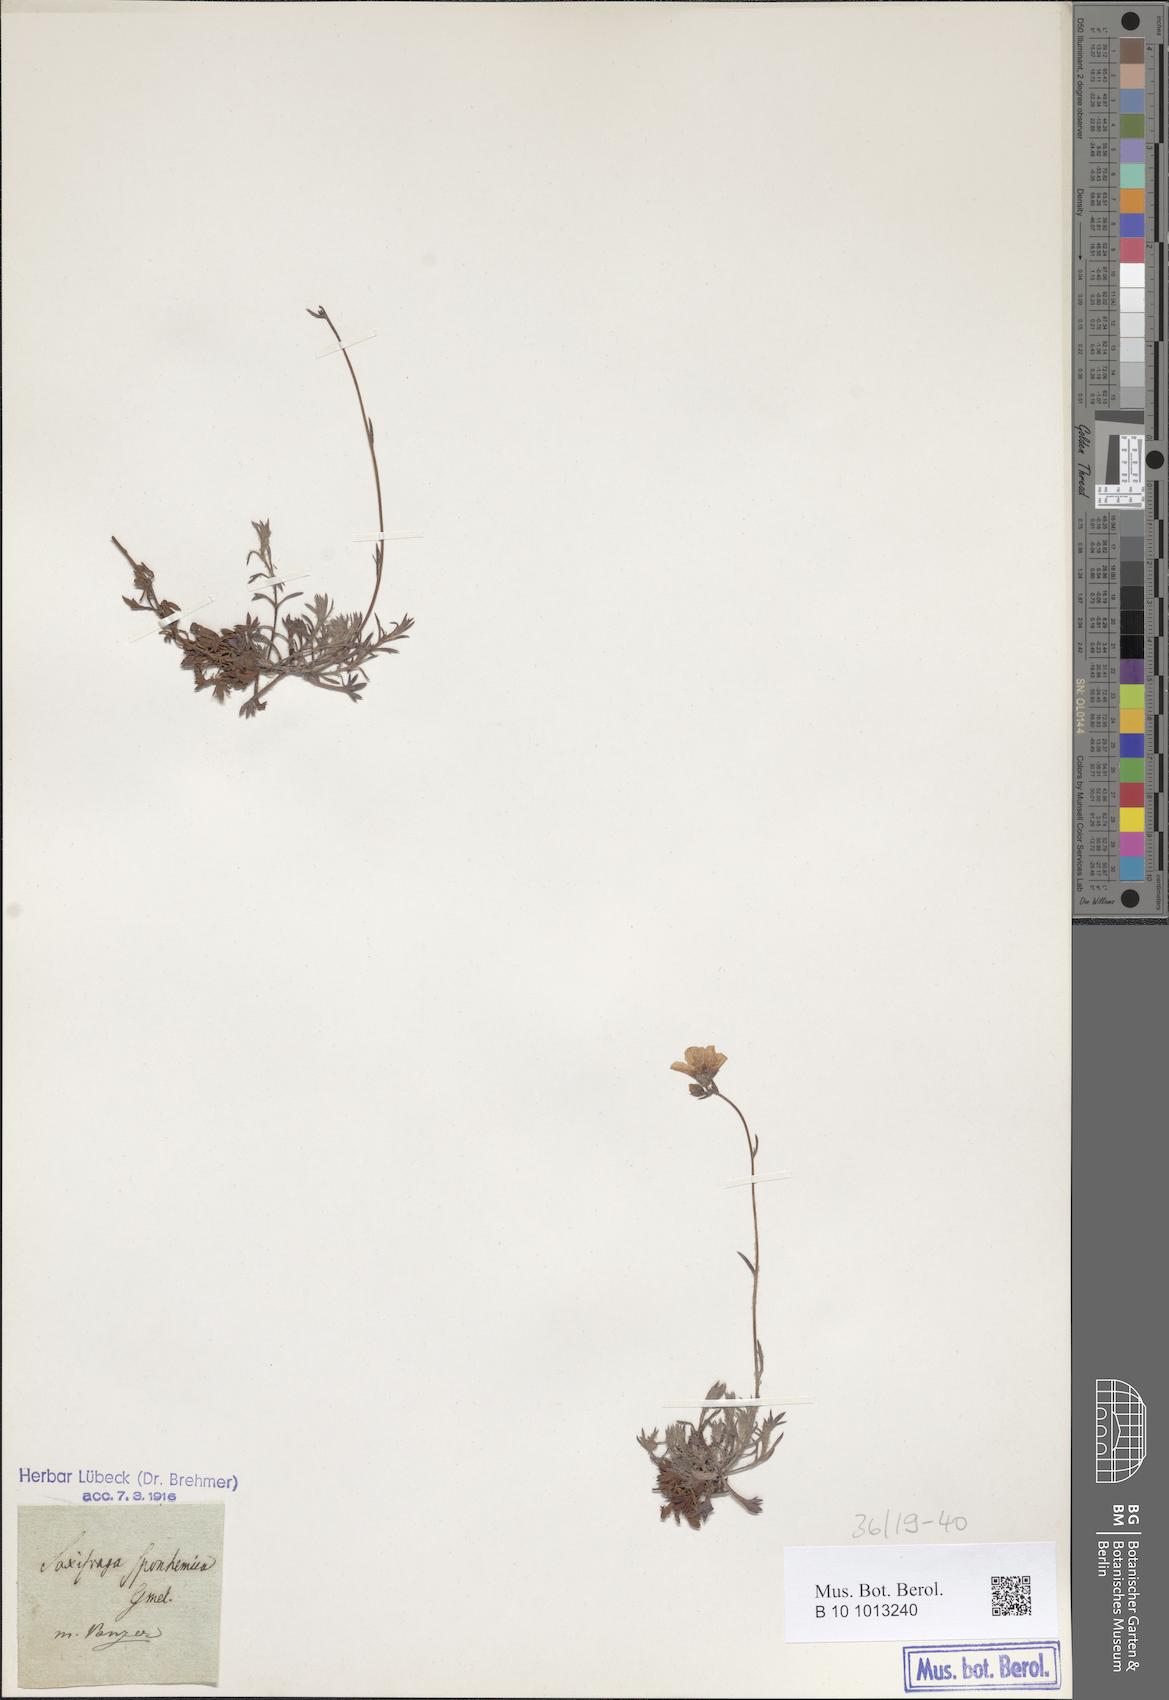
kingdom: Plantae
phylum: Tracheophyta
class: Magnoliopsida
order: Saxifragales
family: Saxifragaceae
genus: Saxifraga
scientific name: Saxifraga rosacea
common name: Irish saxifrage
